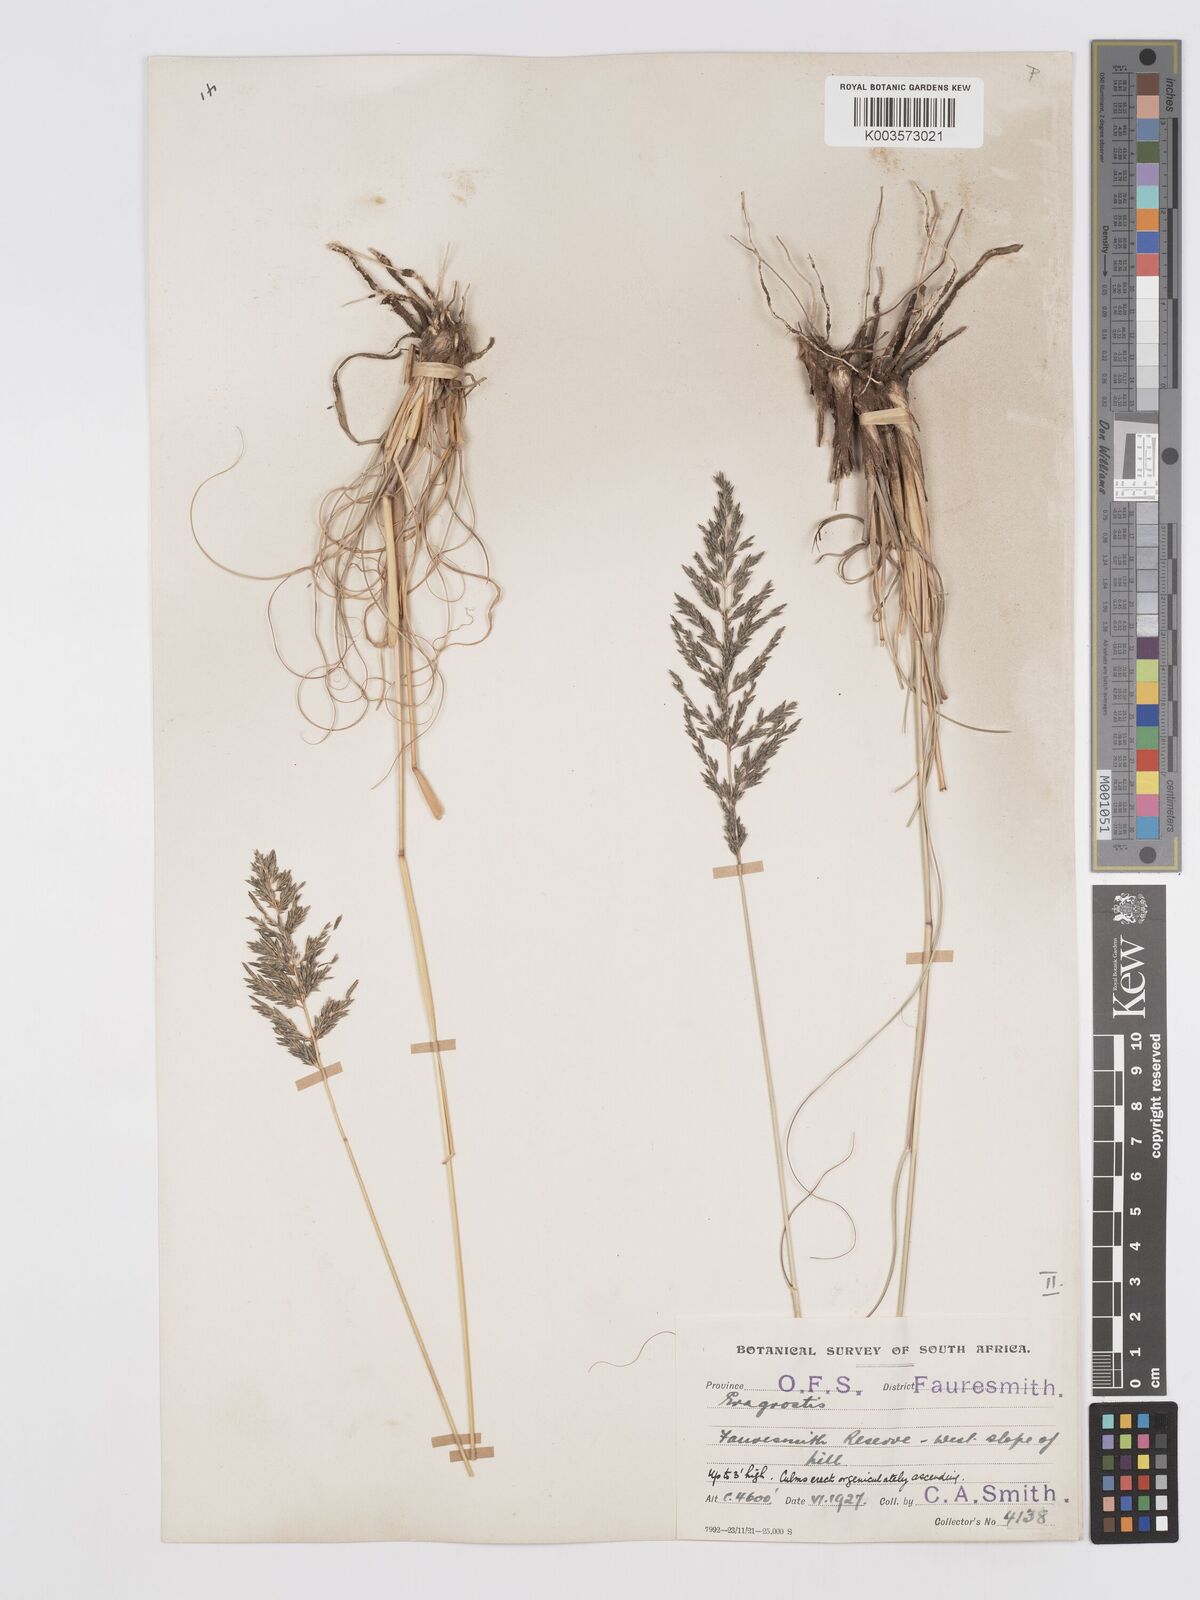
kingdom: Plantae
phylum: Tracheophyta
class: Liliopsida
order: Poales
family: Poaceae
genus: Eragrostis
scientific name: Eragrostis curvula
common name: African love-grass
